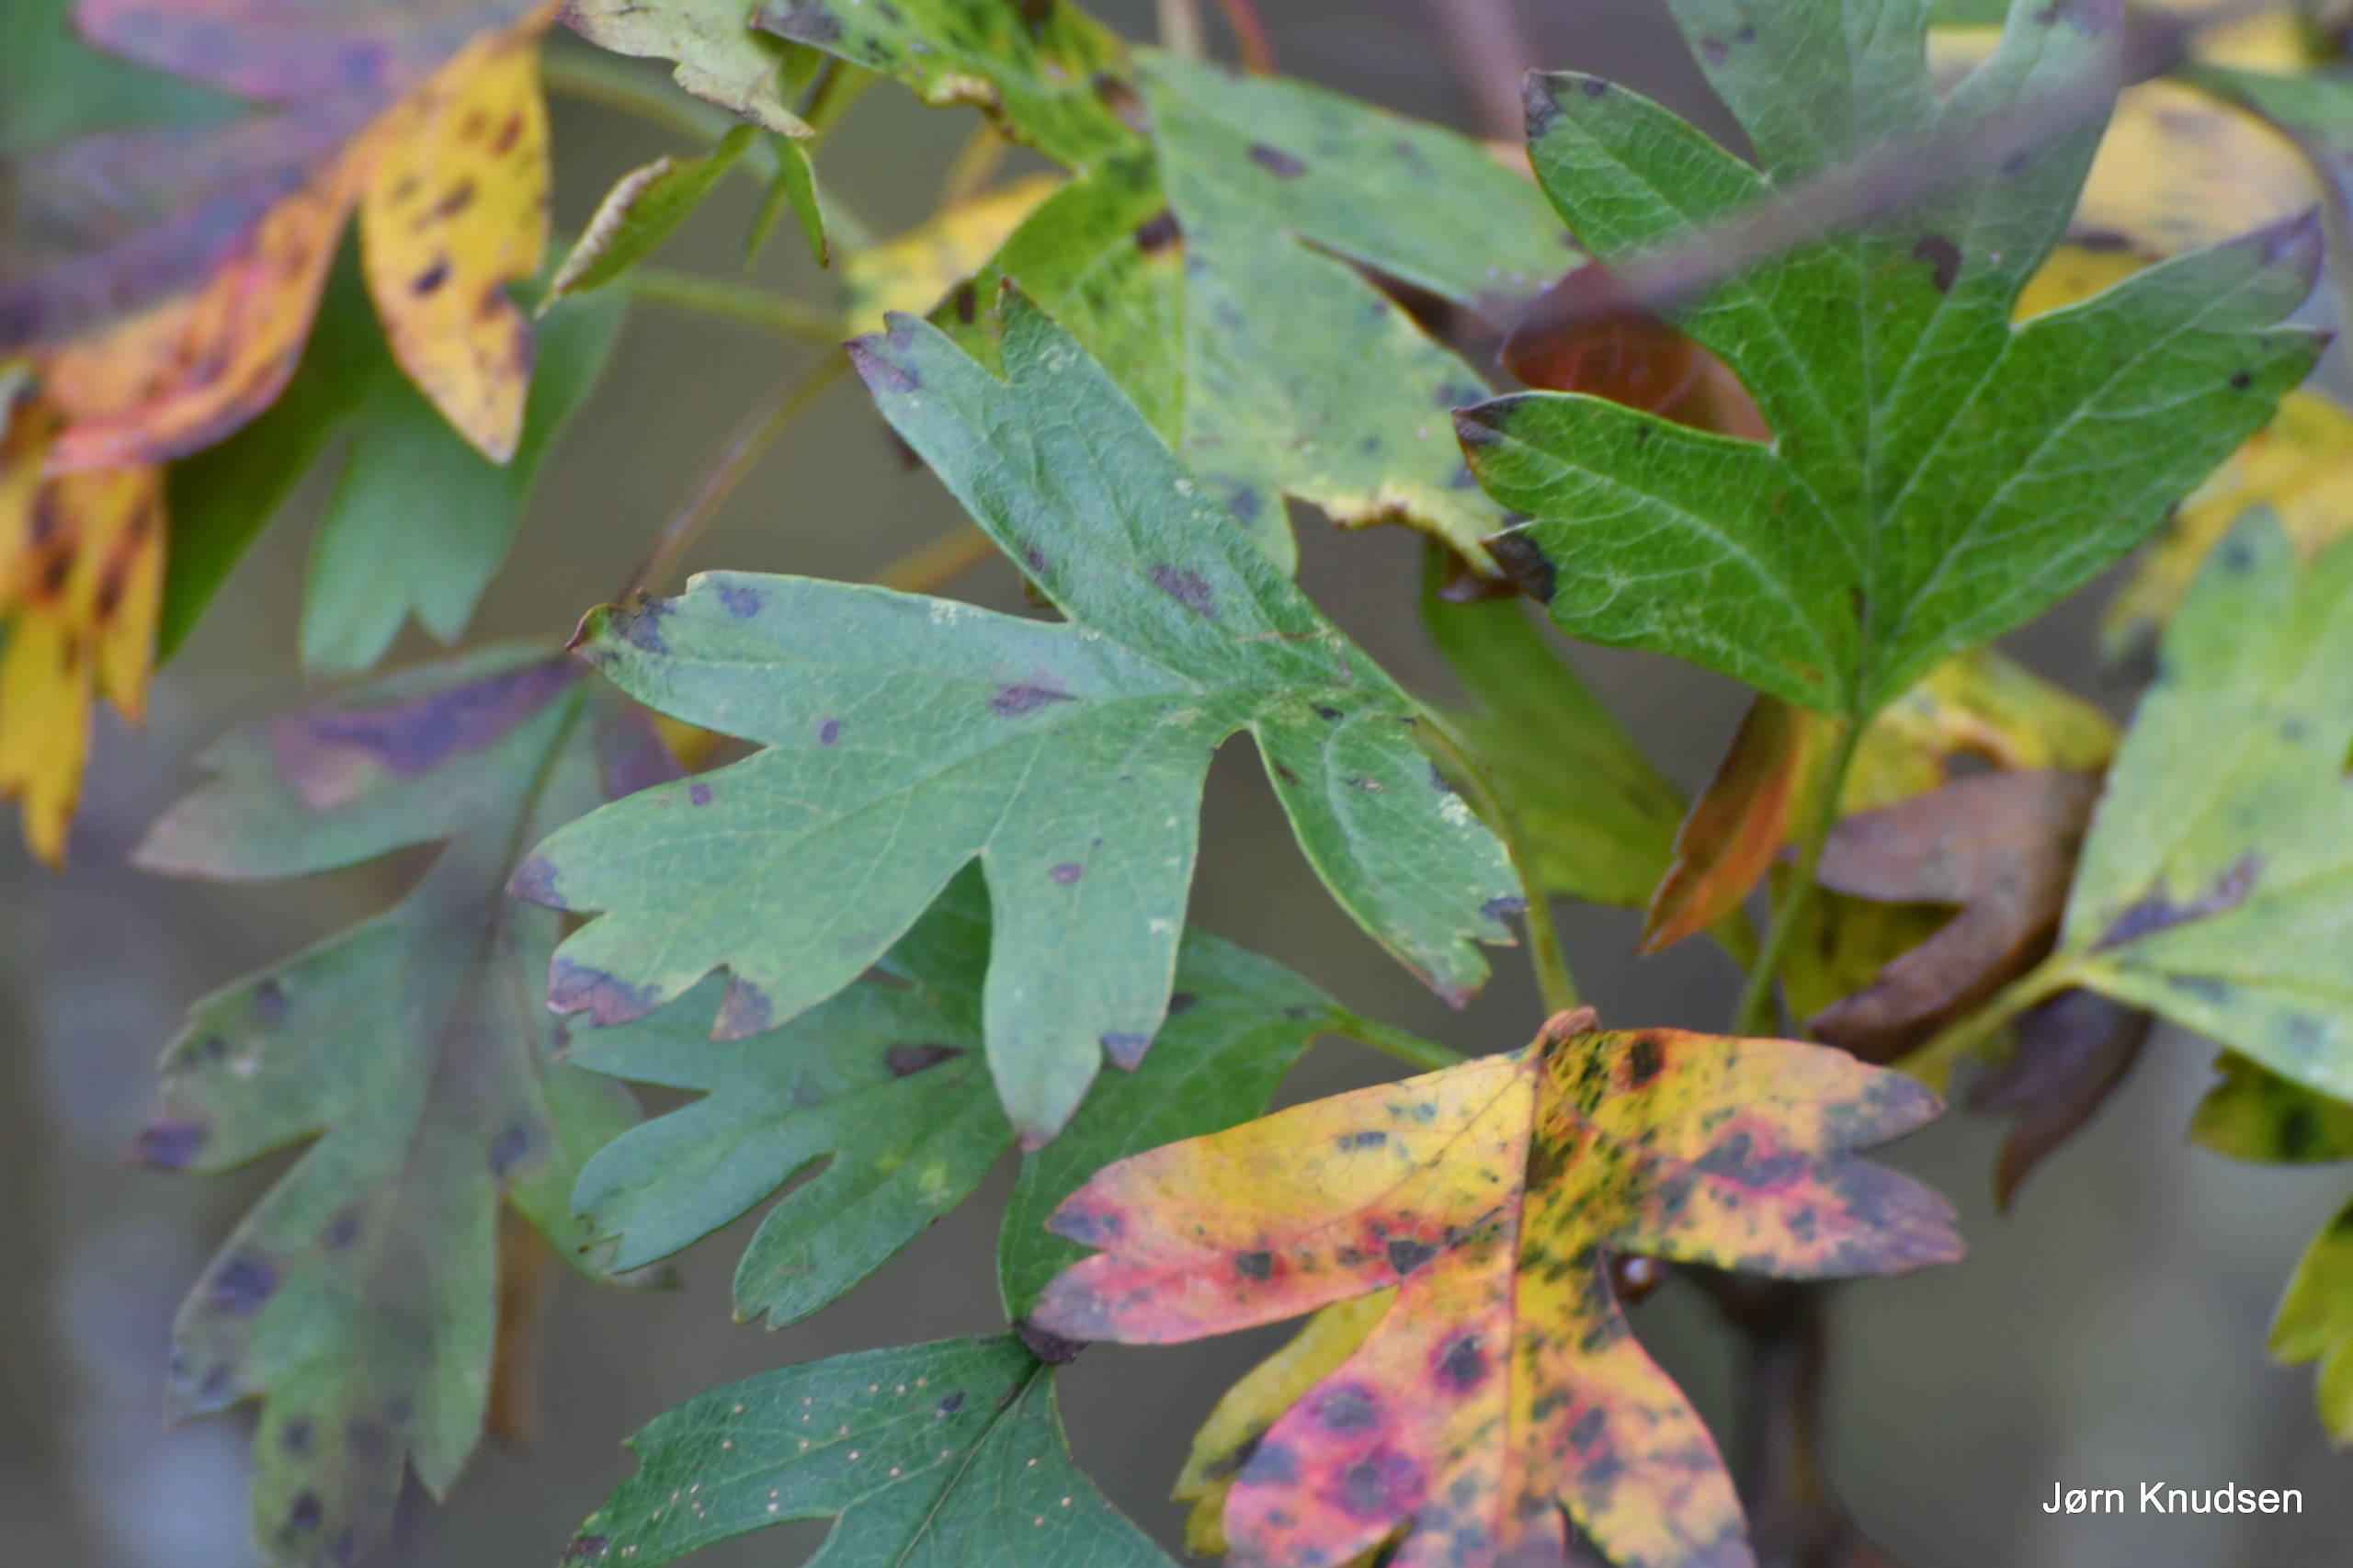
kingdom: Plantae
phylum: Tracheophyta
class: Magnoliopsida
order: Rosales
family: Rosaceae
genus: Crataegus
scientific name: Crataegus monogyna
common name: Engriflet hvidtjørn
